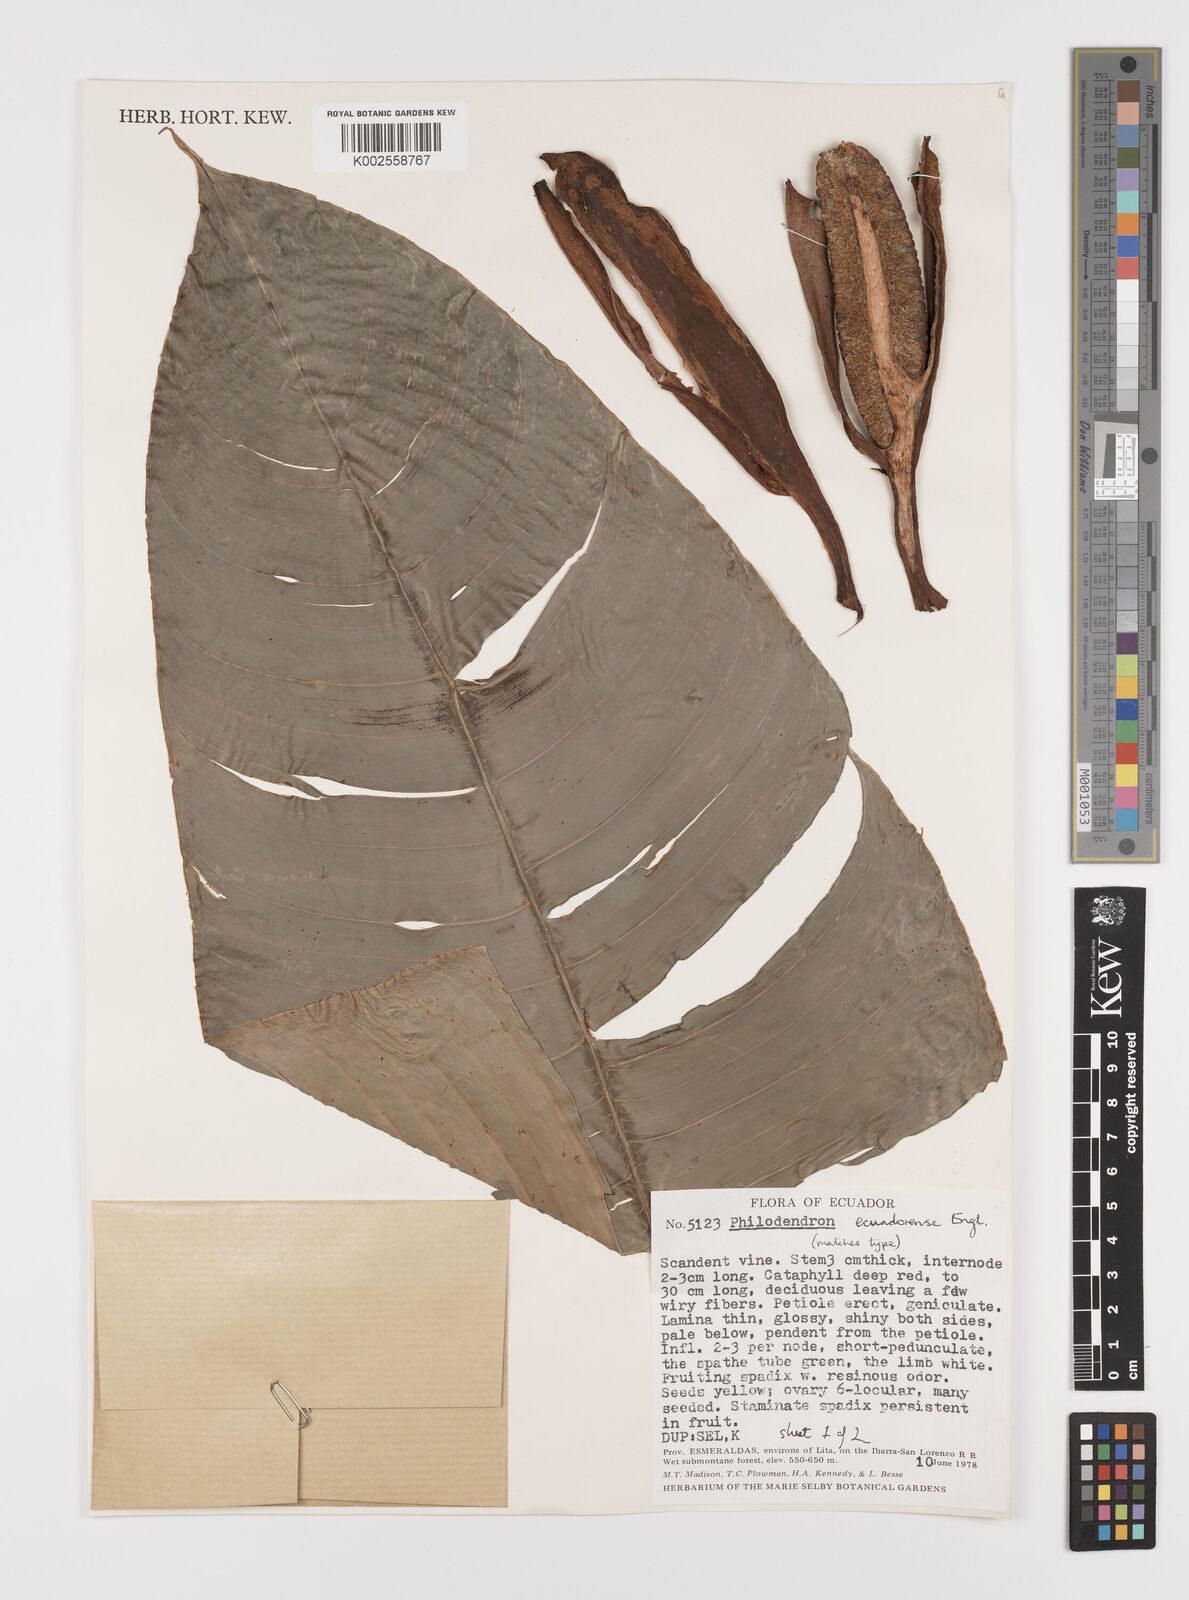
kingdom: Plantae
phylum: Tracheophyta
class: Liliopsida
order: Alismatales
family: Araceae
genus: Philodendron
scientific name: Philodendron tenue
